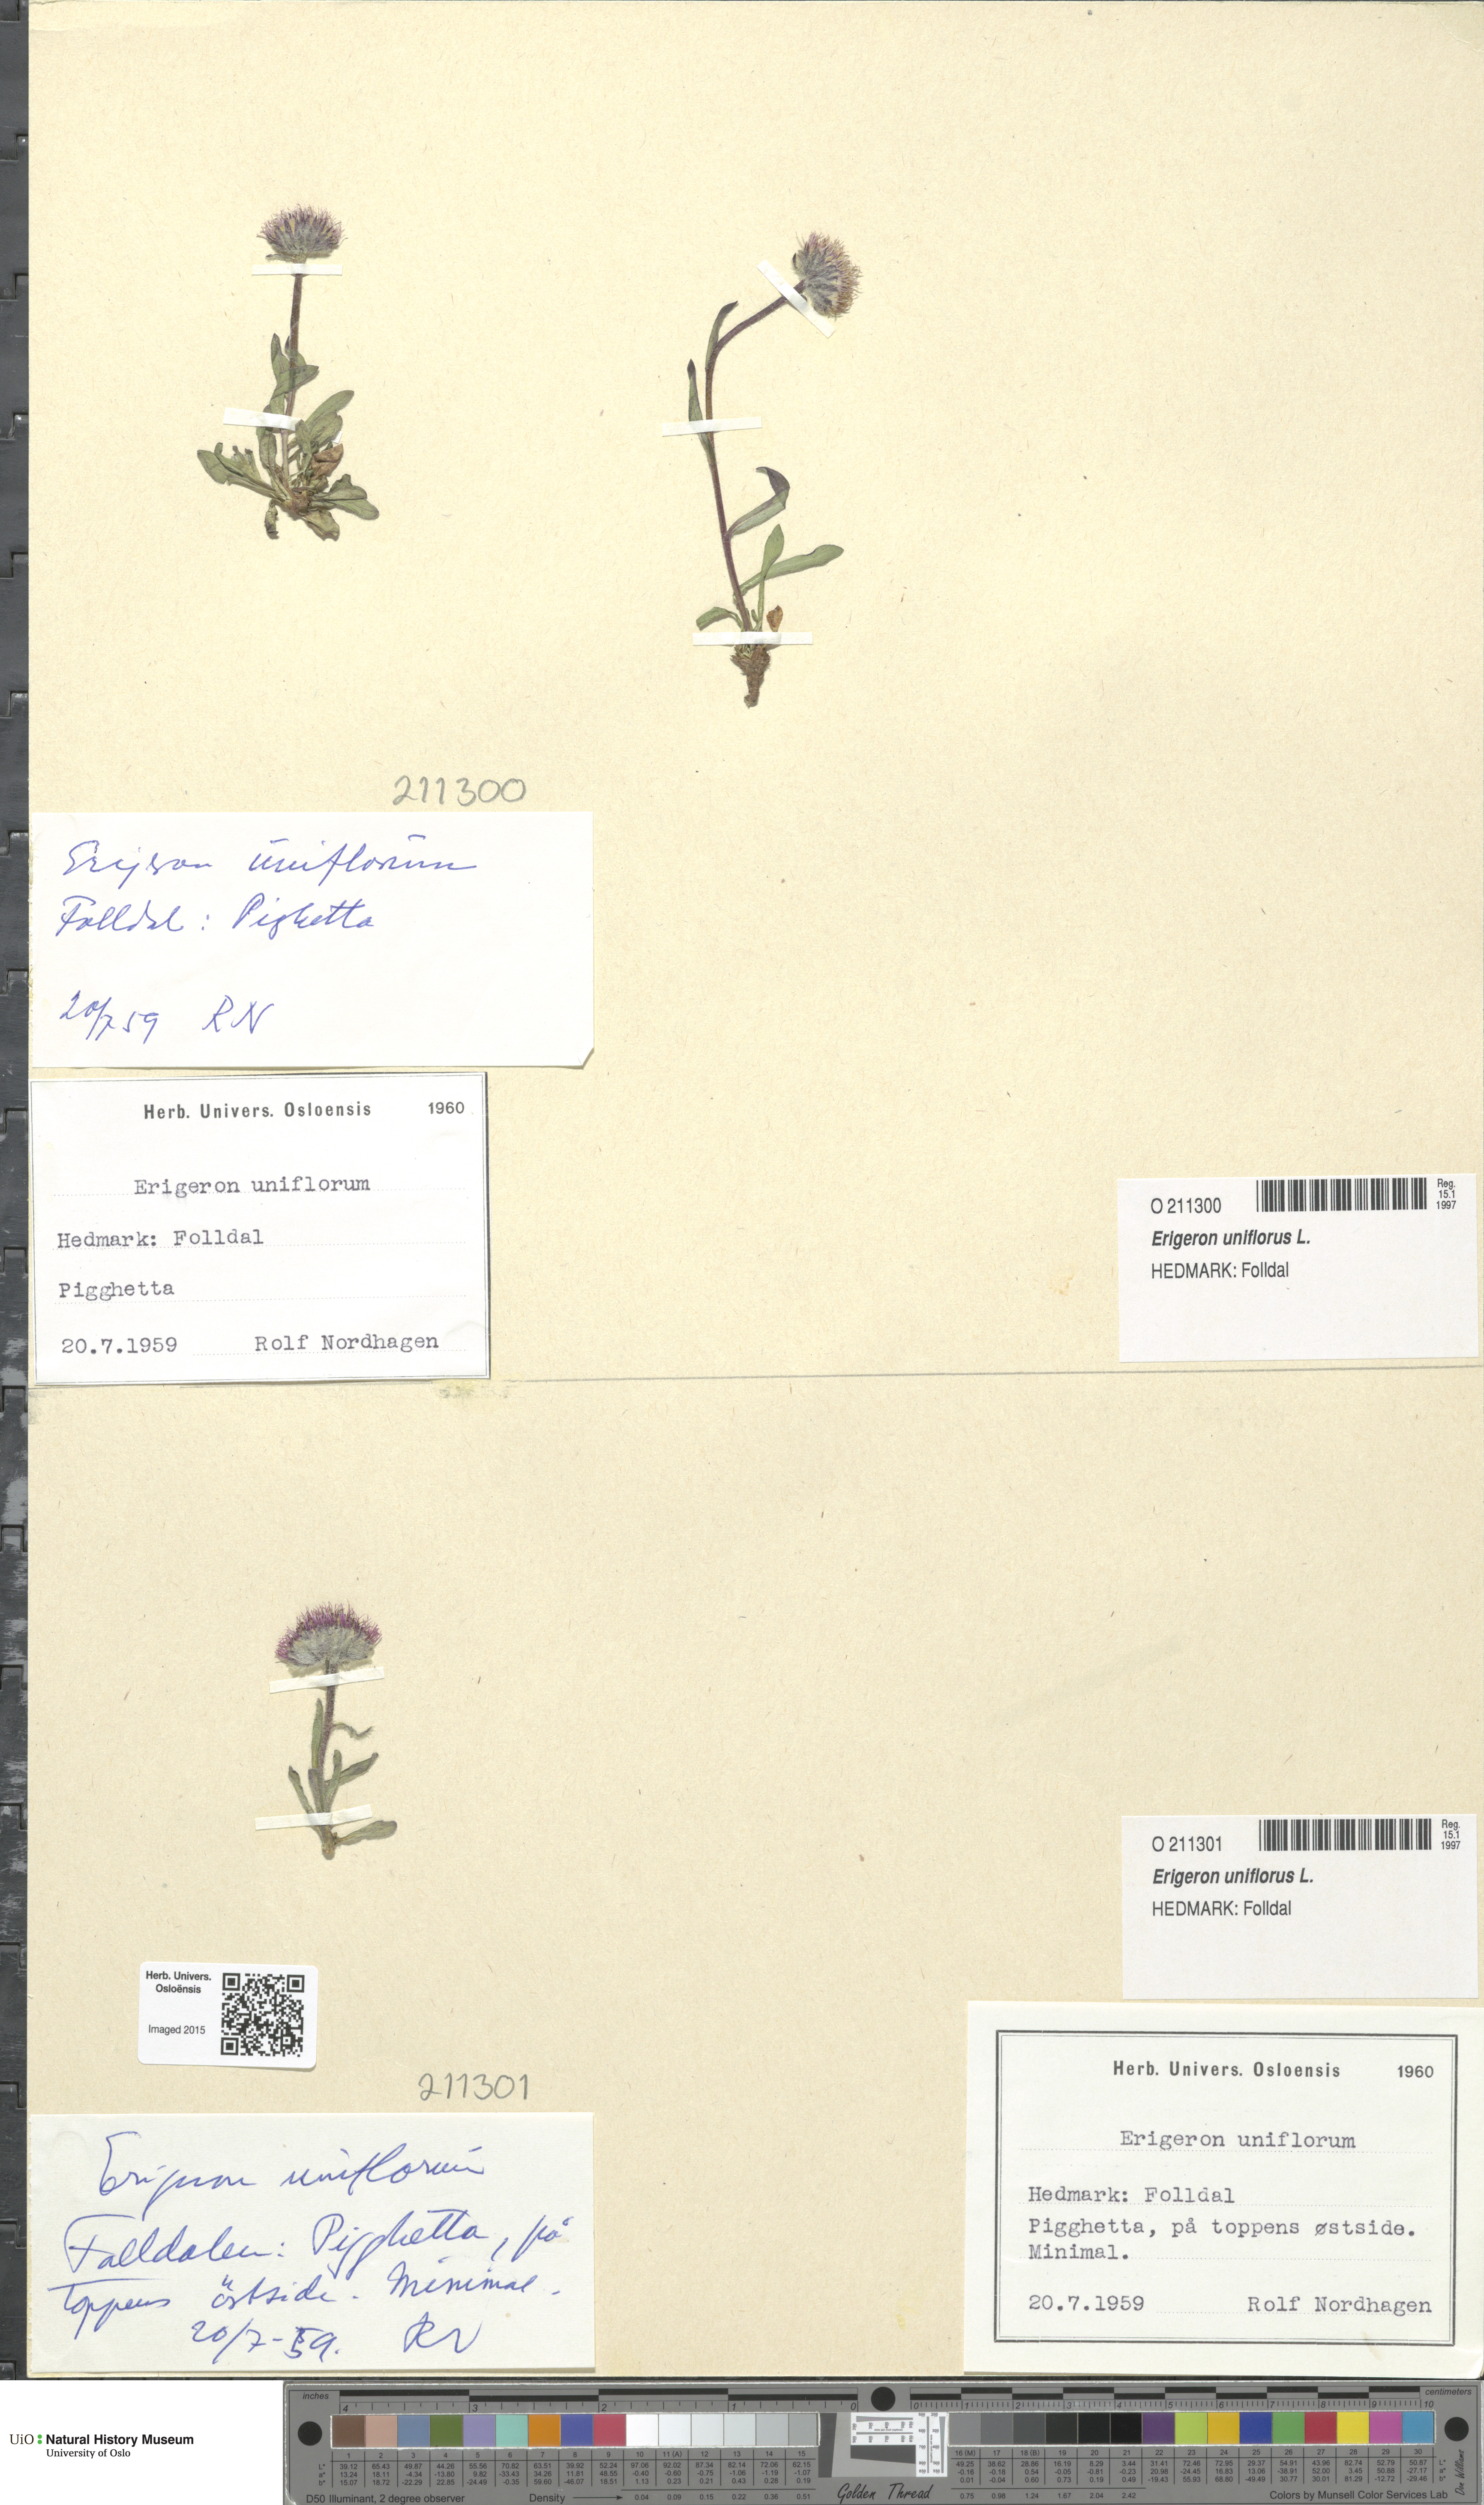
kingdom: Plantae
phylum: Tracheophyta
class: Magnoliopsida
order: Asterales
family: Asteraceae
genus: Erigeron
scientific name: Erigeron uniflorus
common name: Northern daisy
